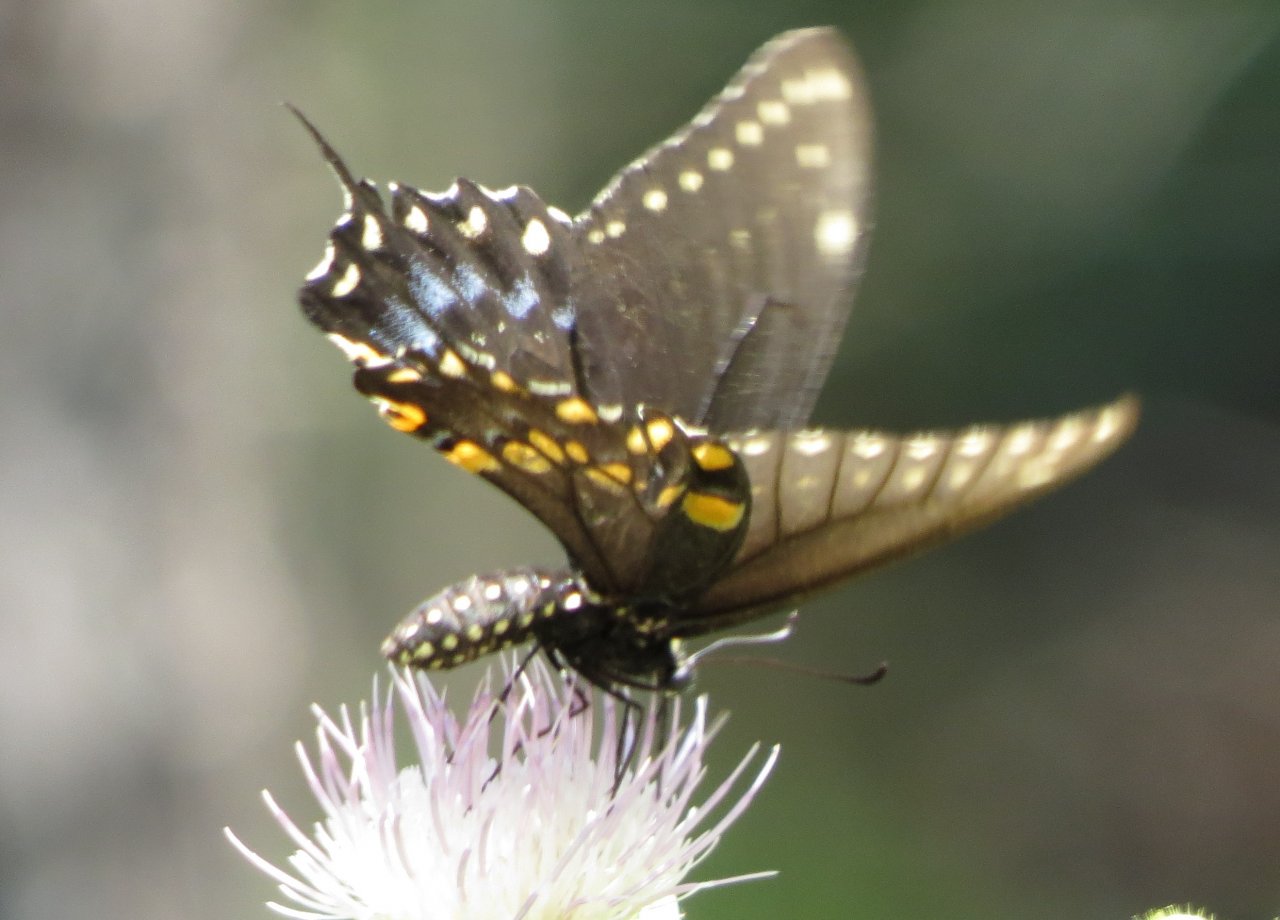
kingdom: Animalia
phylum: Arthropoda
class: Insecta
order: Lepidoptera
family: Papilionidae
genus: Papilio
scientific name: Papilio polyxenes
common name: Black Swallowtail
